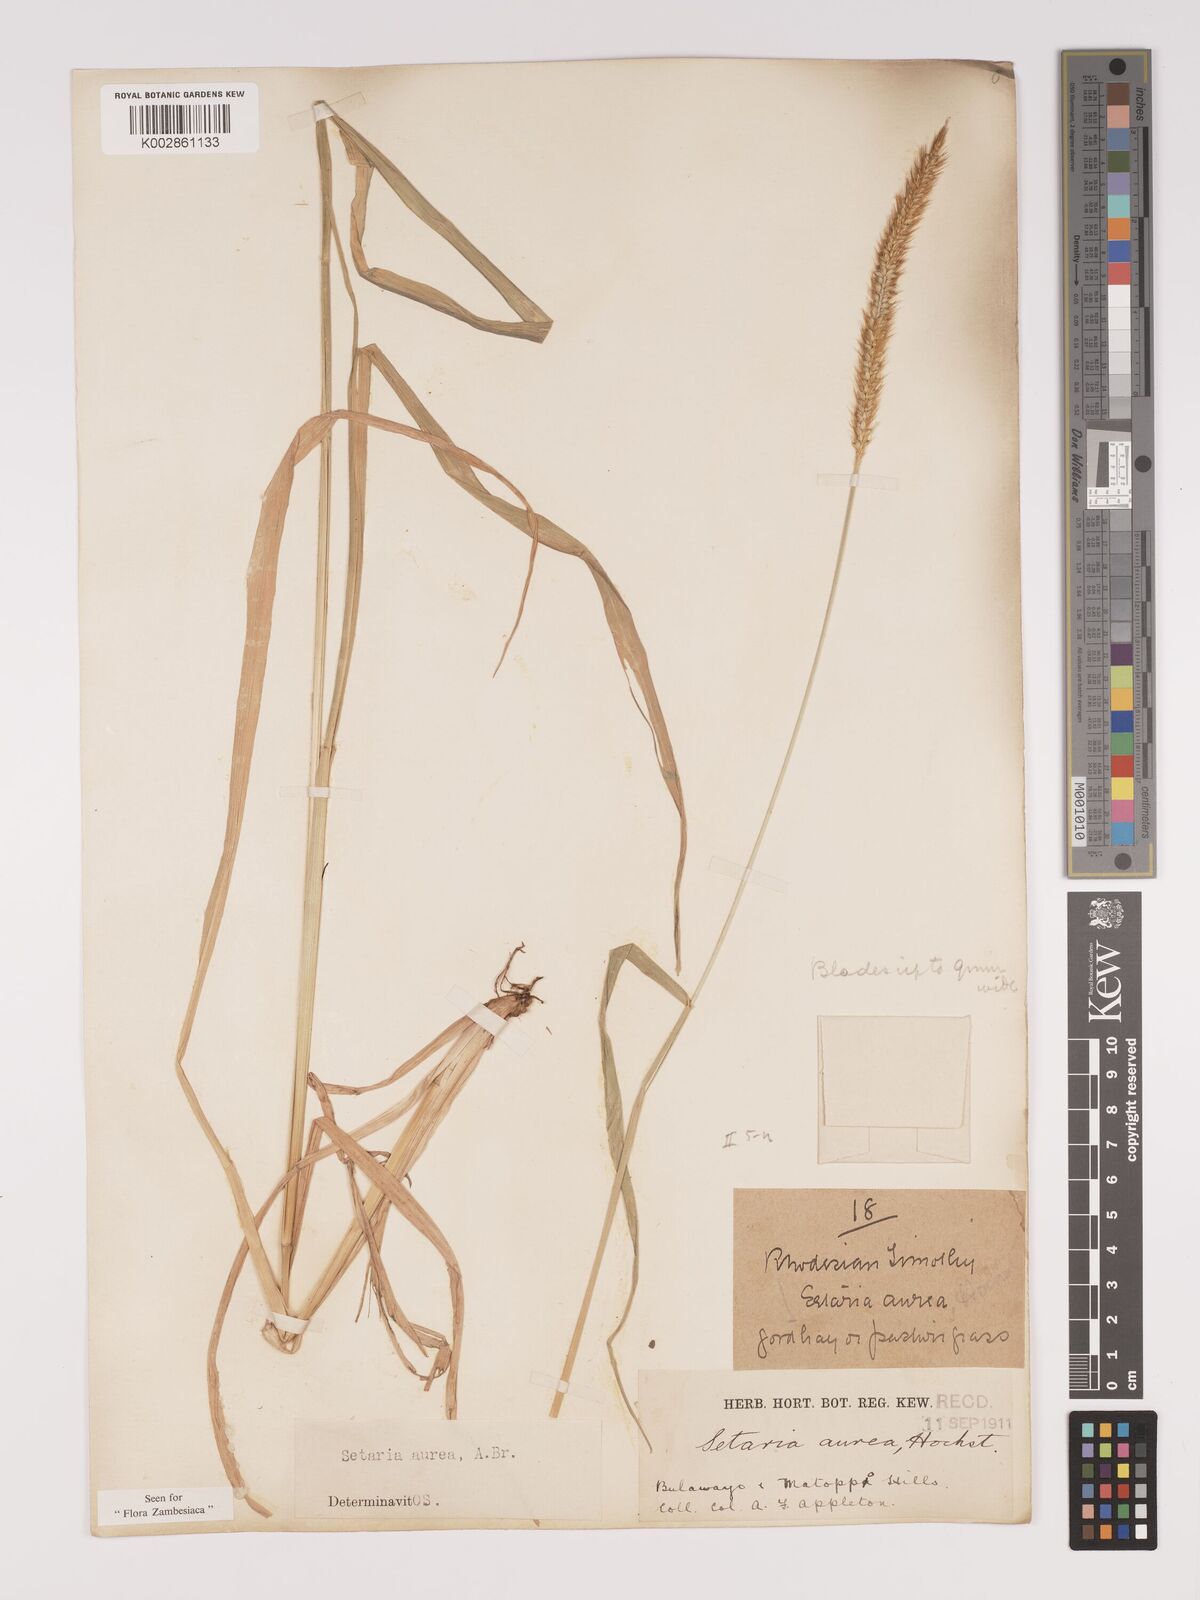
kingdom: Plantae
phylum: Tracheophyta
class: Liliopsida
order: Poales
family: Poaceae
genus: Setaria
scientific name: Setaria sphacelata
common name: African bristlegrass
